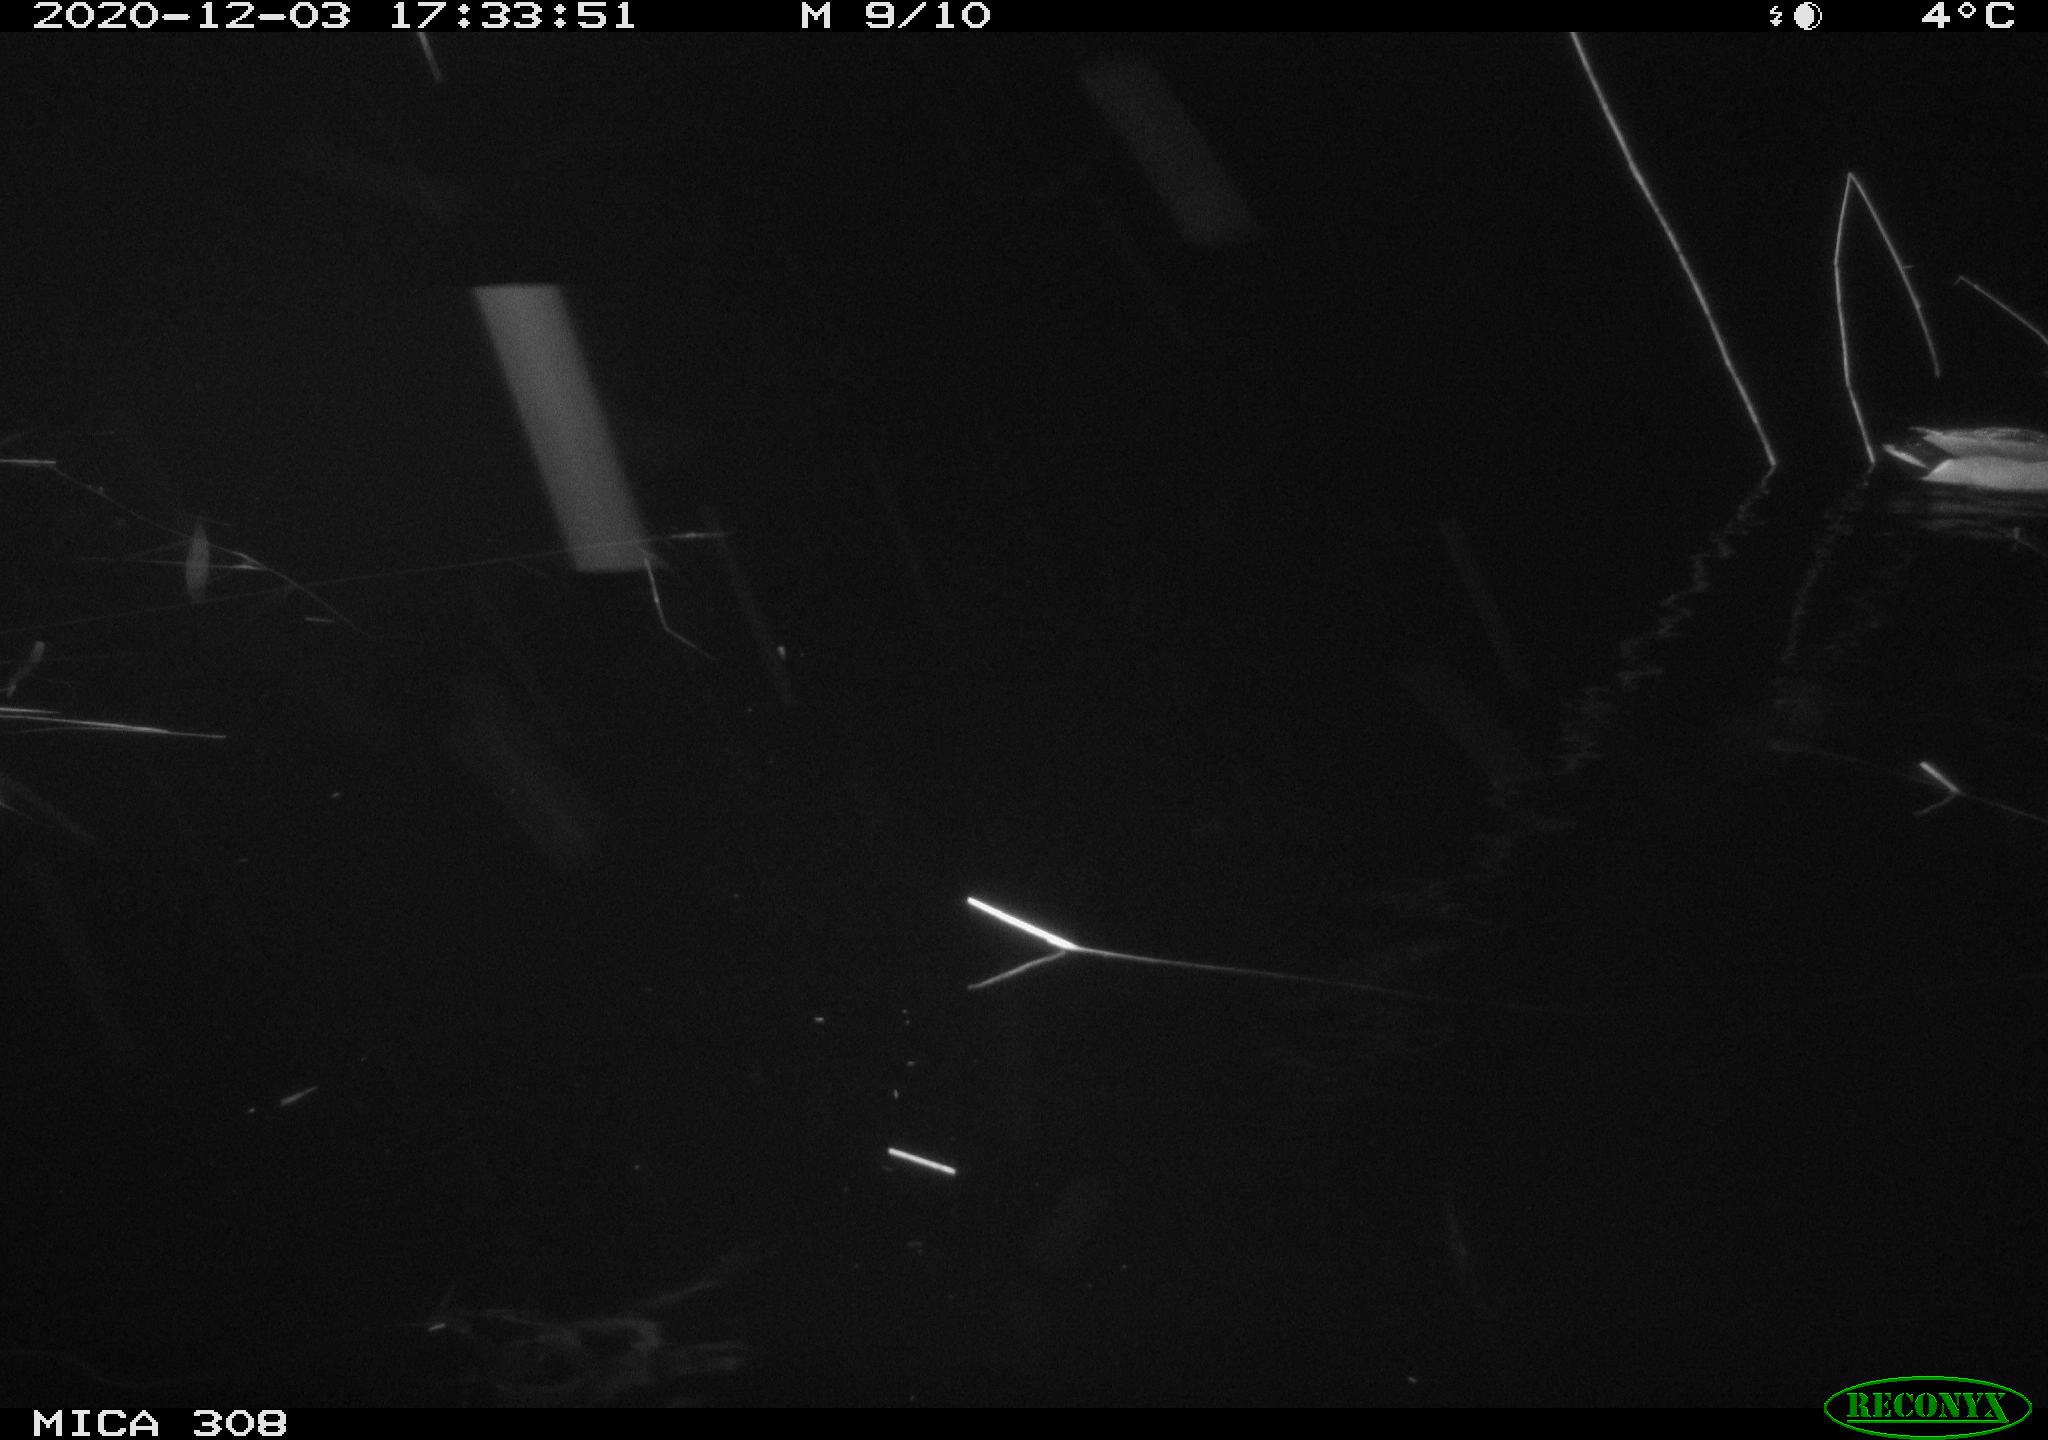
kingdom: Animalia
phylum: Chordata
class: Aves
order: Anseriformes
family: Anatidae
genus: Anas
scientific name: Anas platyrhynchos
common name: Mallard
